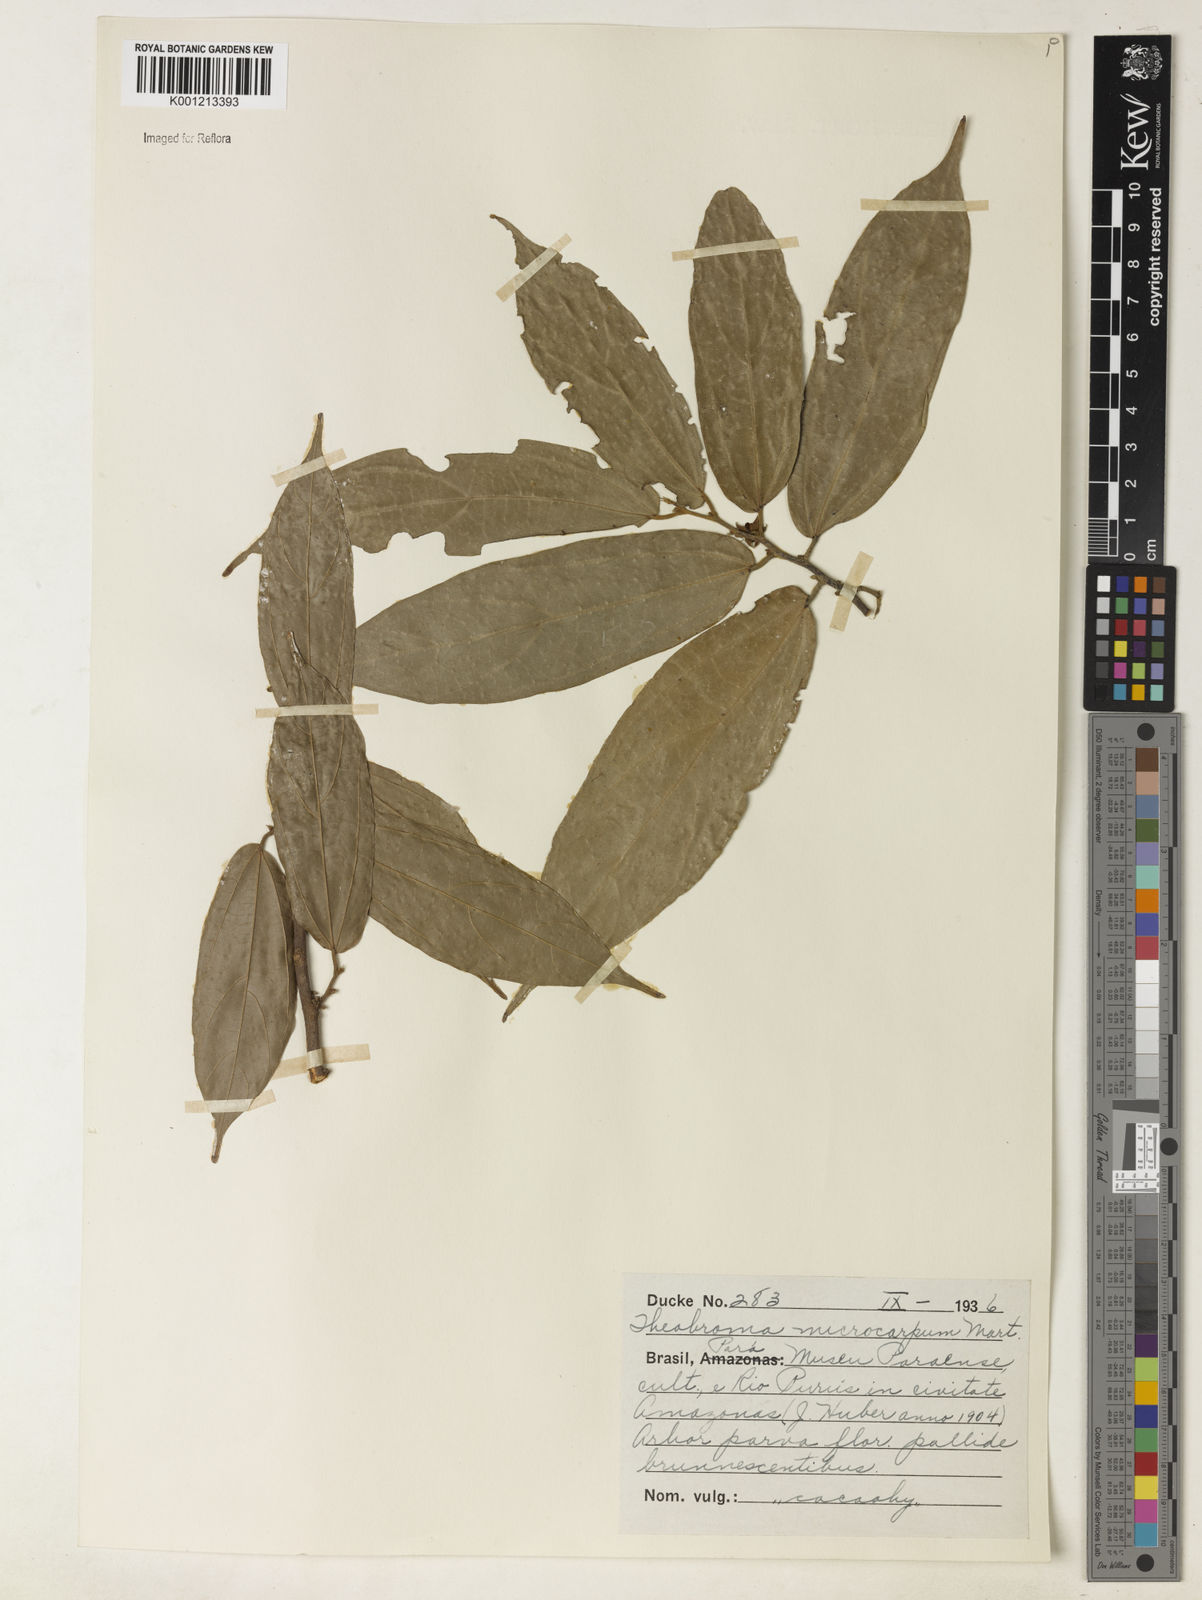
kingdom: Plantae
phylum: Tracheophyta
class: Magnoliopsida
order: Malvales
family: Malvaceae
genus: Theobroma
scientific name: Theobroma microcarpum
